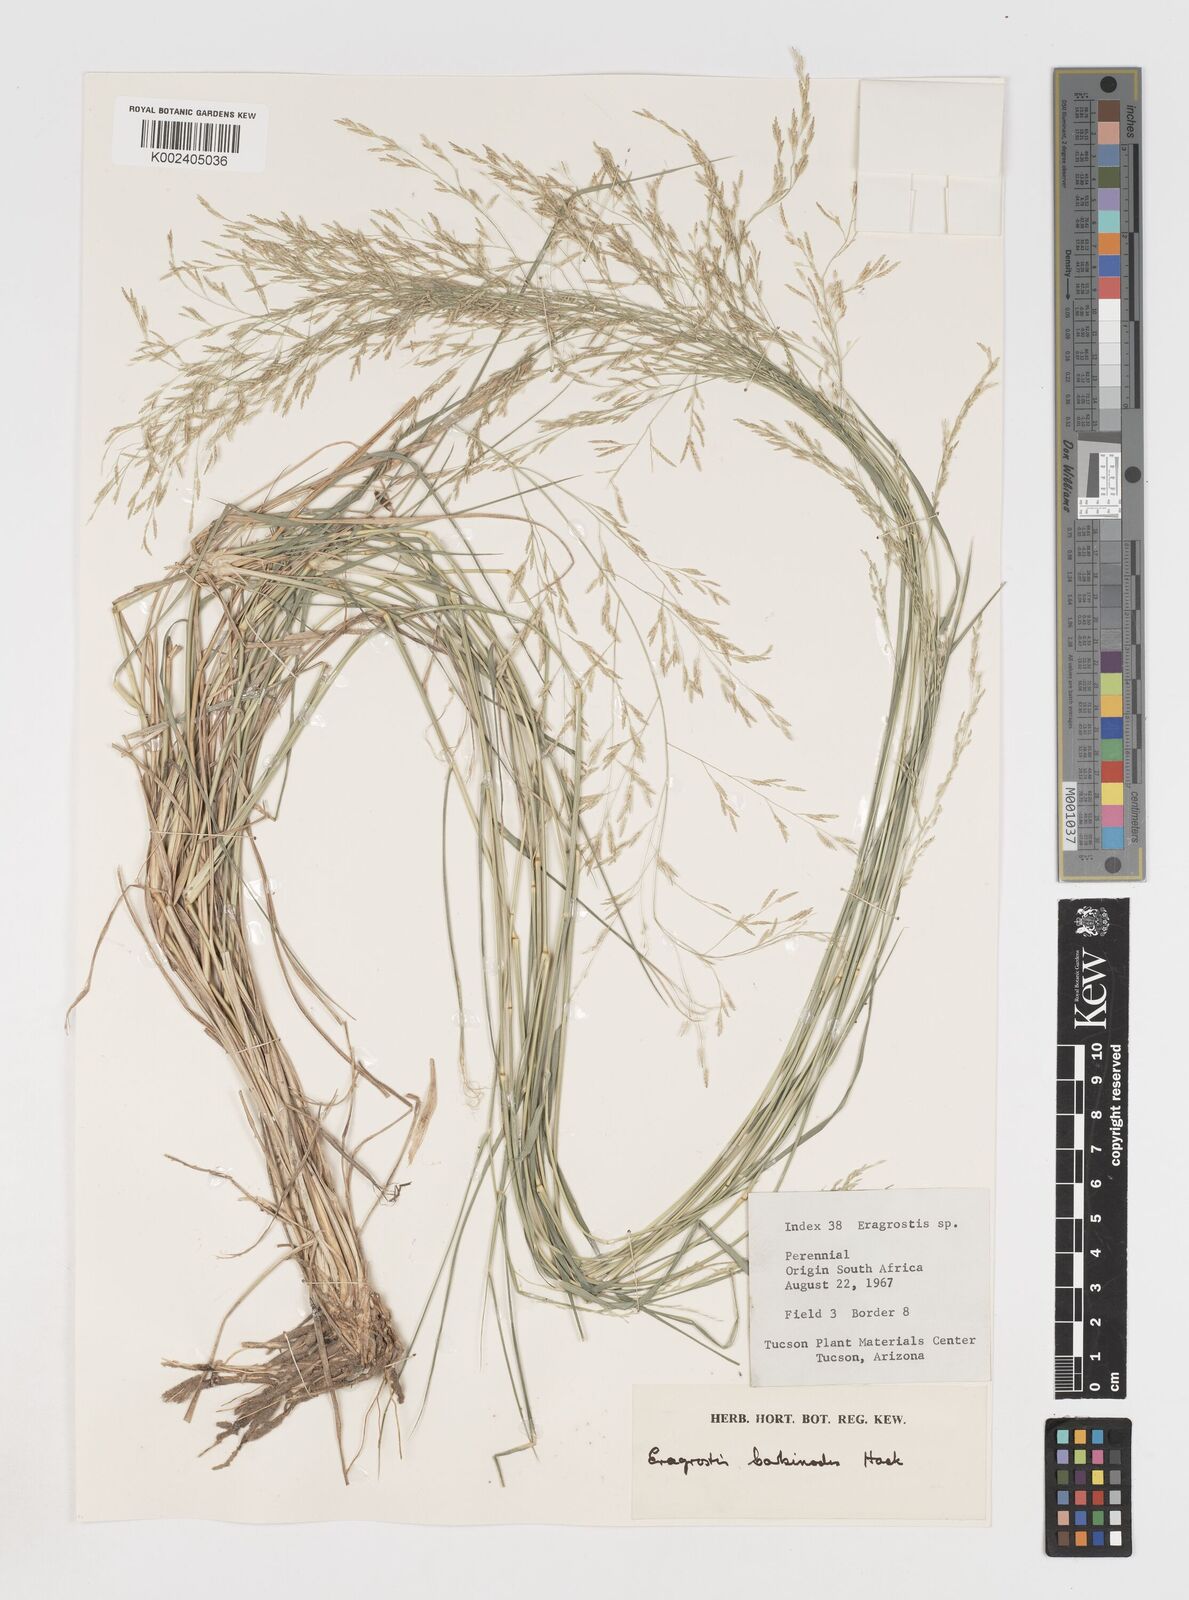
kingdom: Plantae
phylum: Tracheophyta
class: Liliopsida
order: Poales
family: Poaceae
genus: Eragrostis
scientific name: Eragrostis barbinodis
